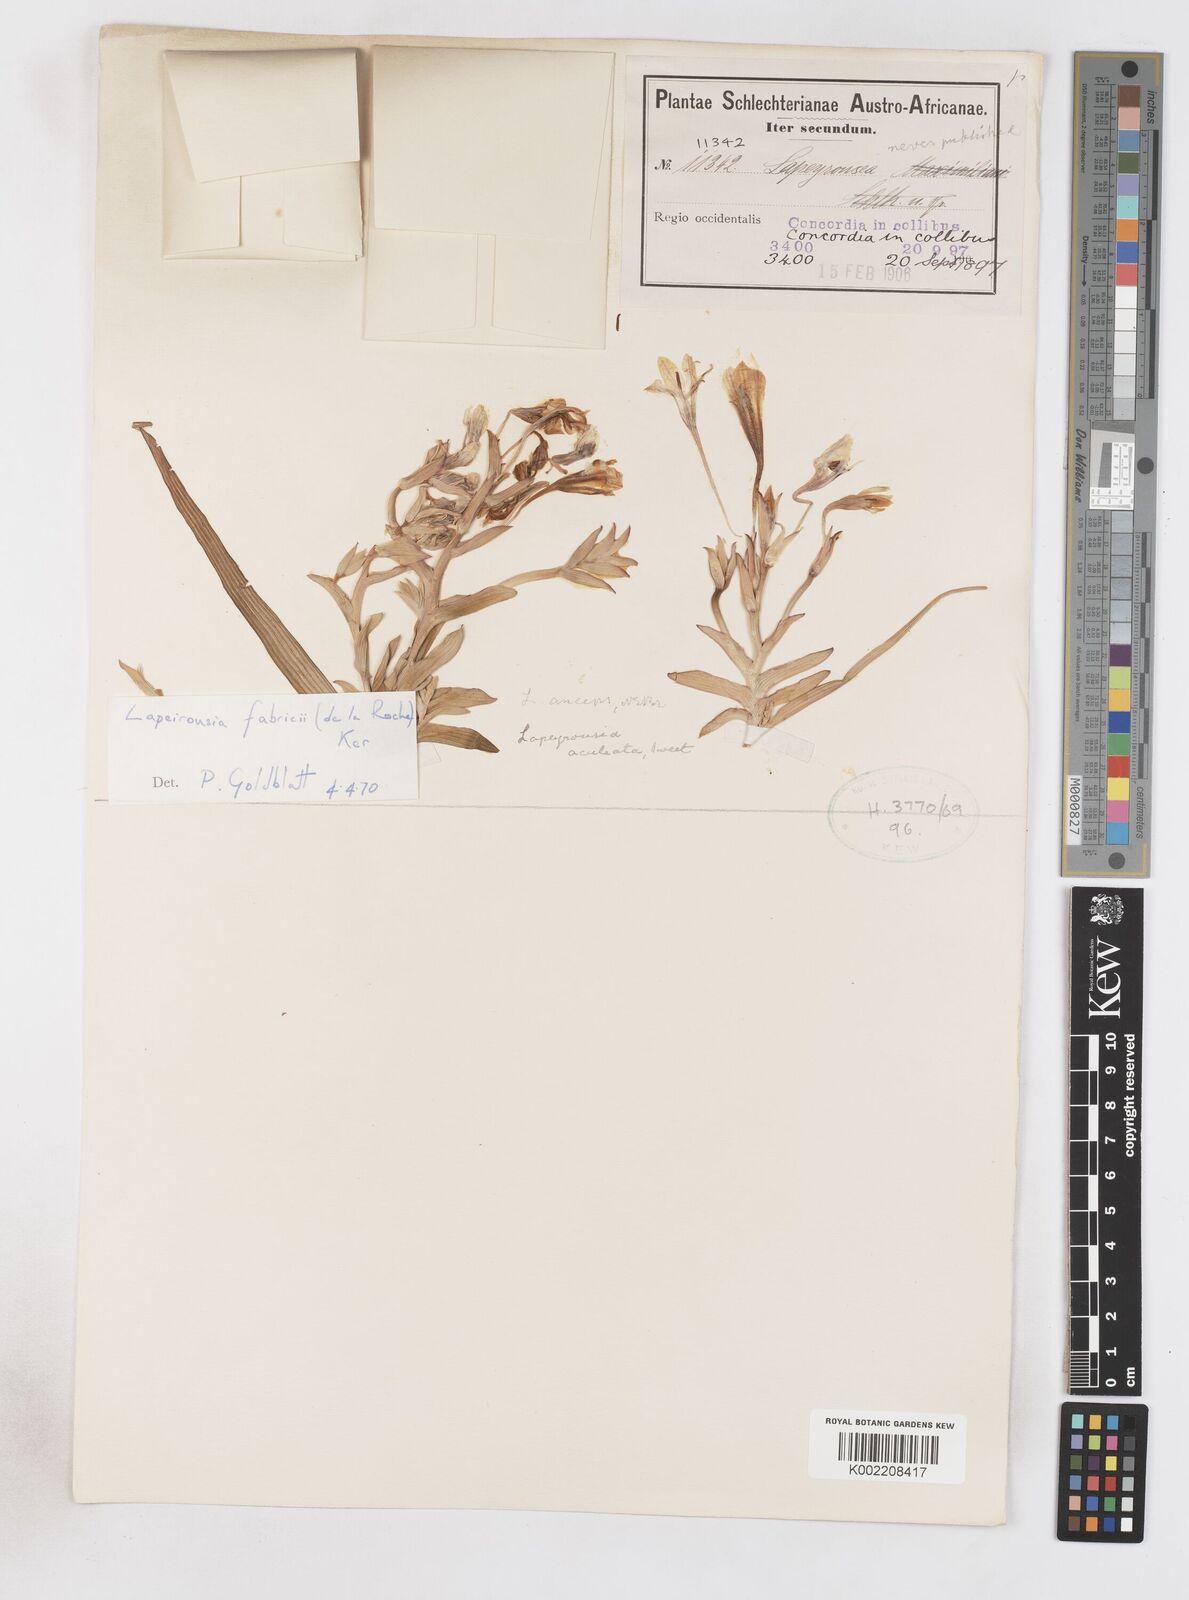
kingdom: Plantae
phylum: Tracheophyta
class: Liliopsida
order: Asparagales
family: Iridaceae
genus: Lapeirousia
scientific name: Lapeirousia fabricii
